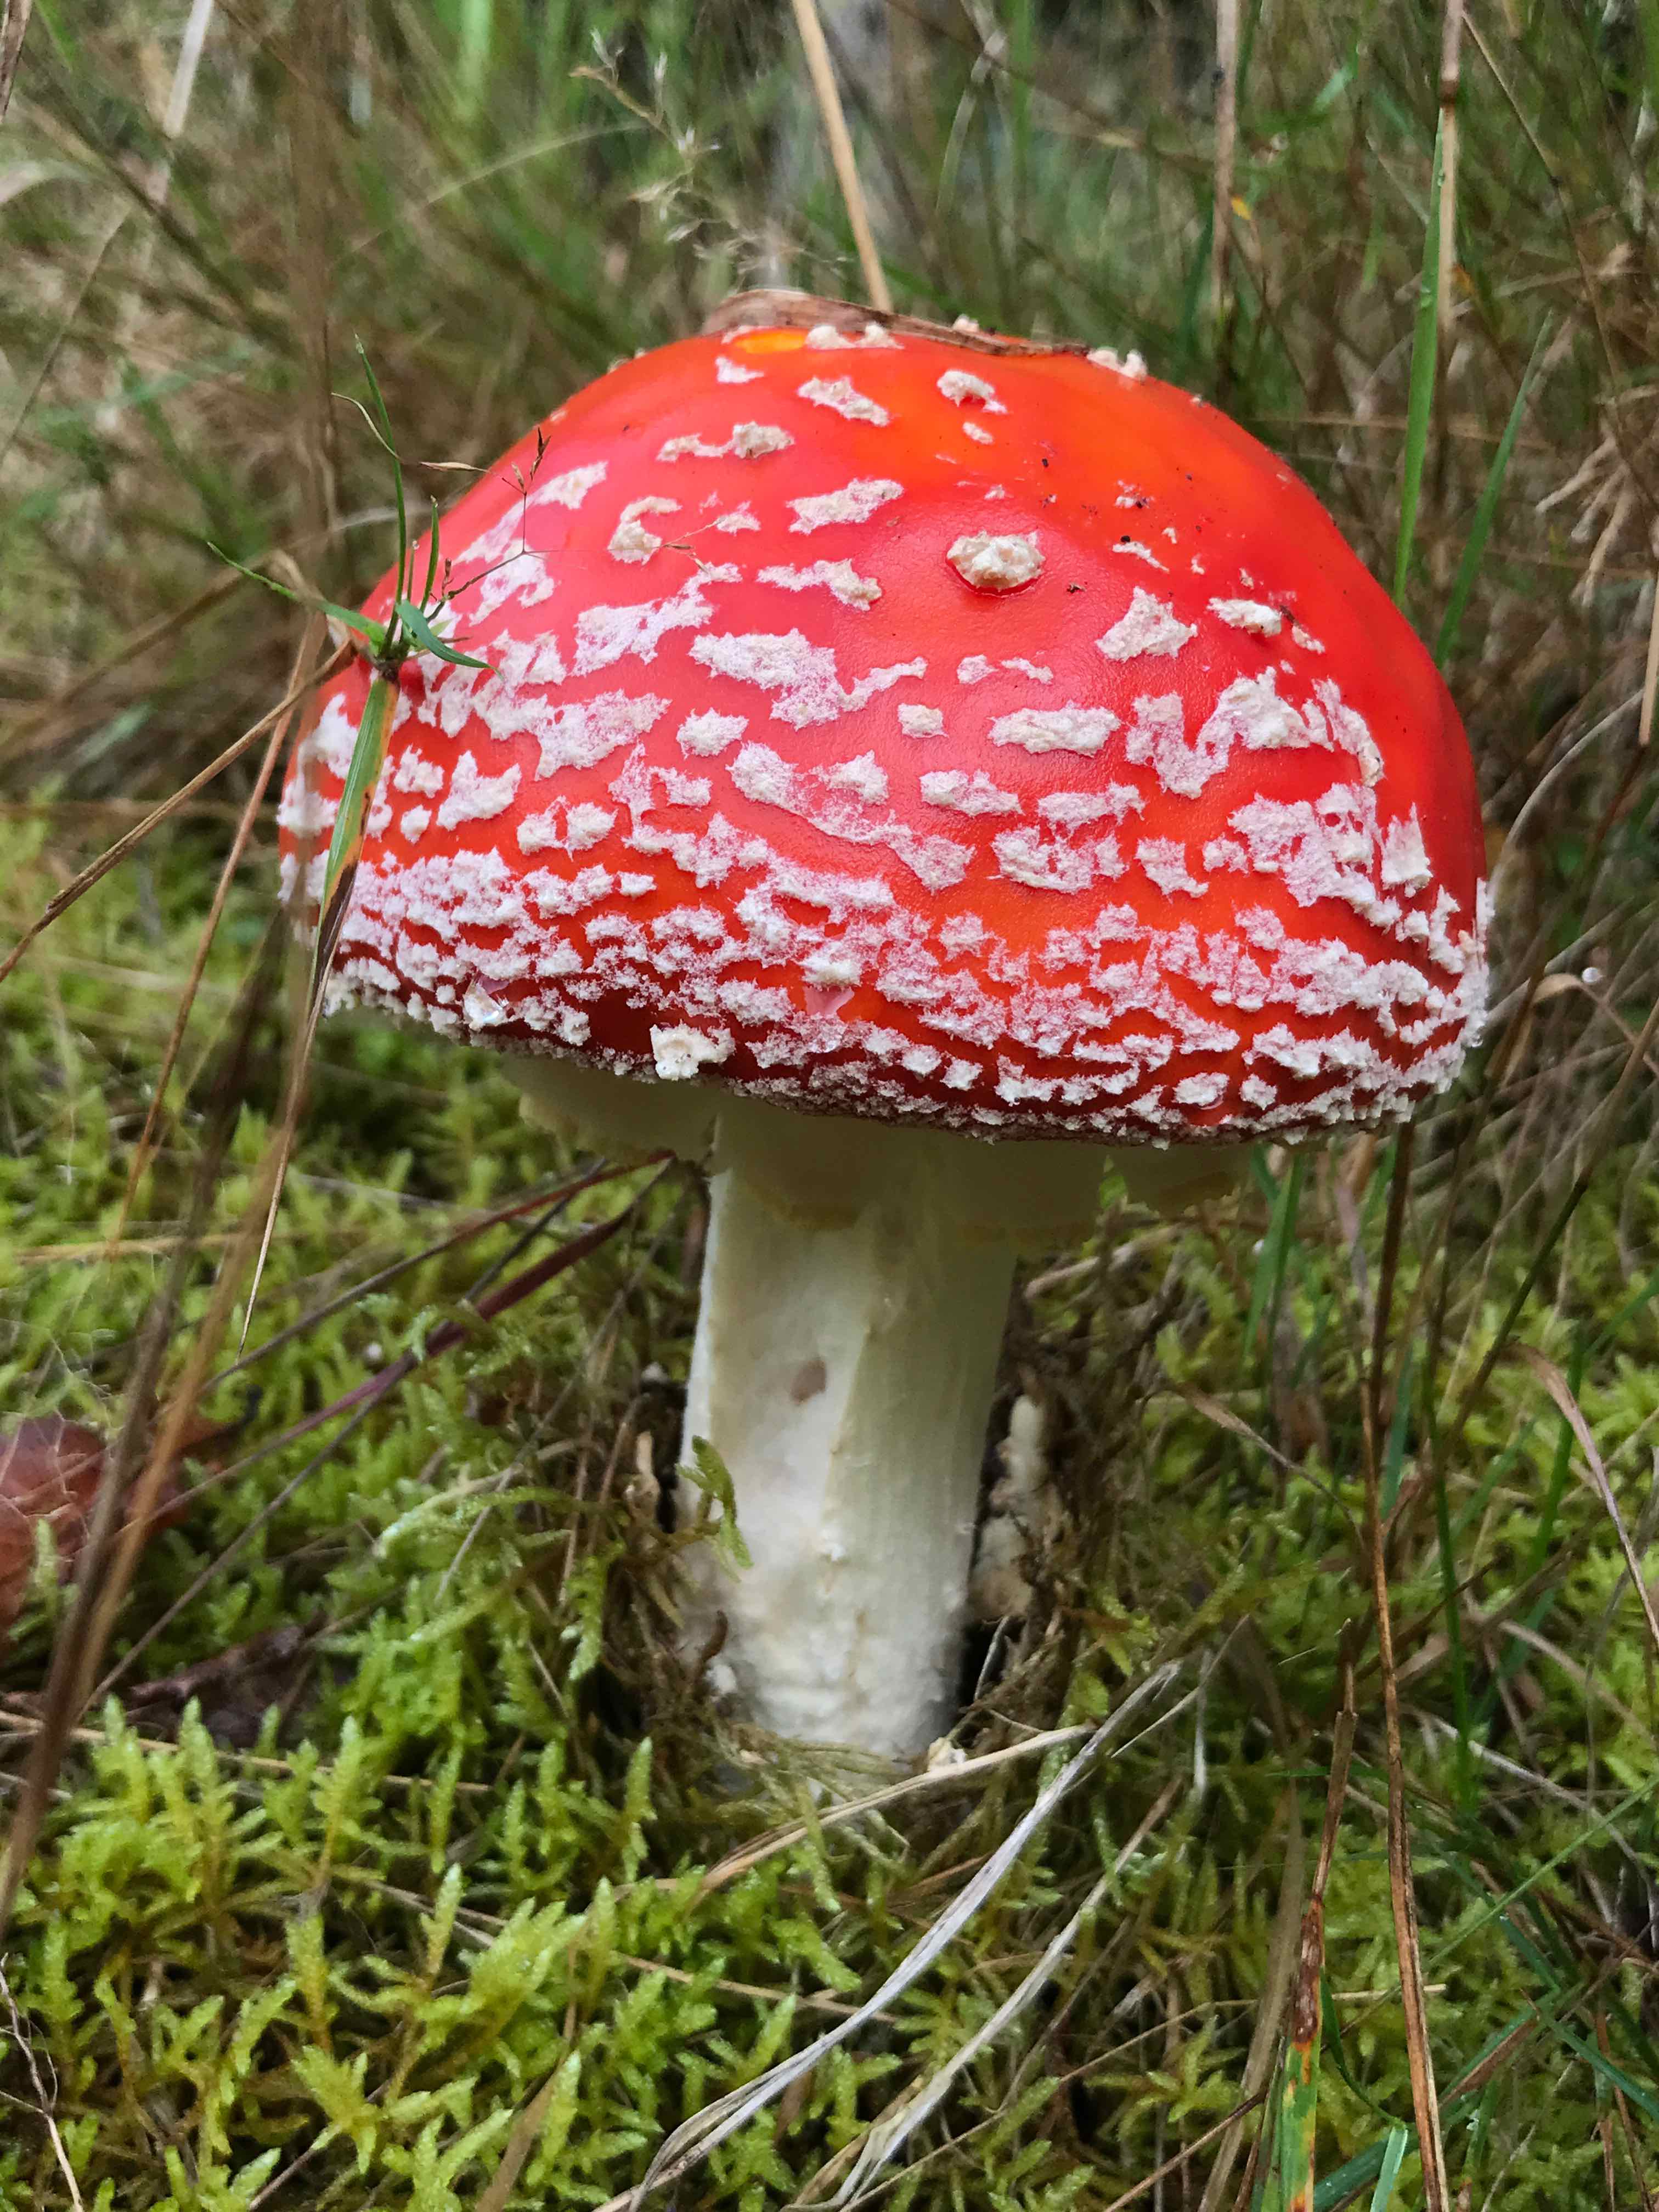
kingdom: Fungi
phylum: Basidiomycota
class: Agaricomycetes
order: Agaricales
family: Amanitaceae
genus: Amanita
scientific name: Amanita muscaria
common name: rød fluesvamp
